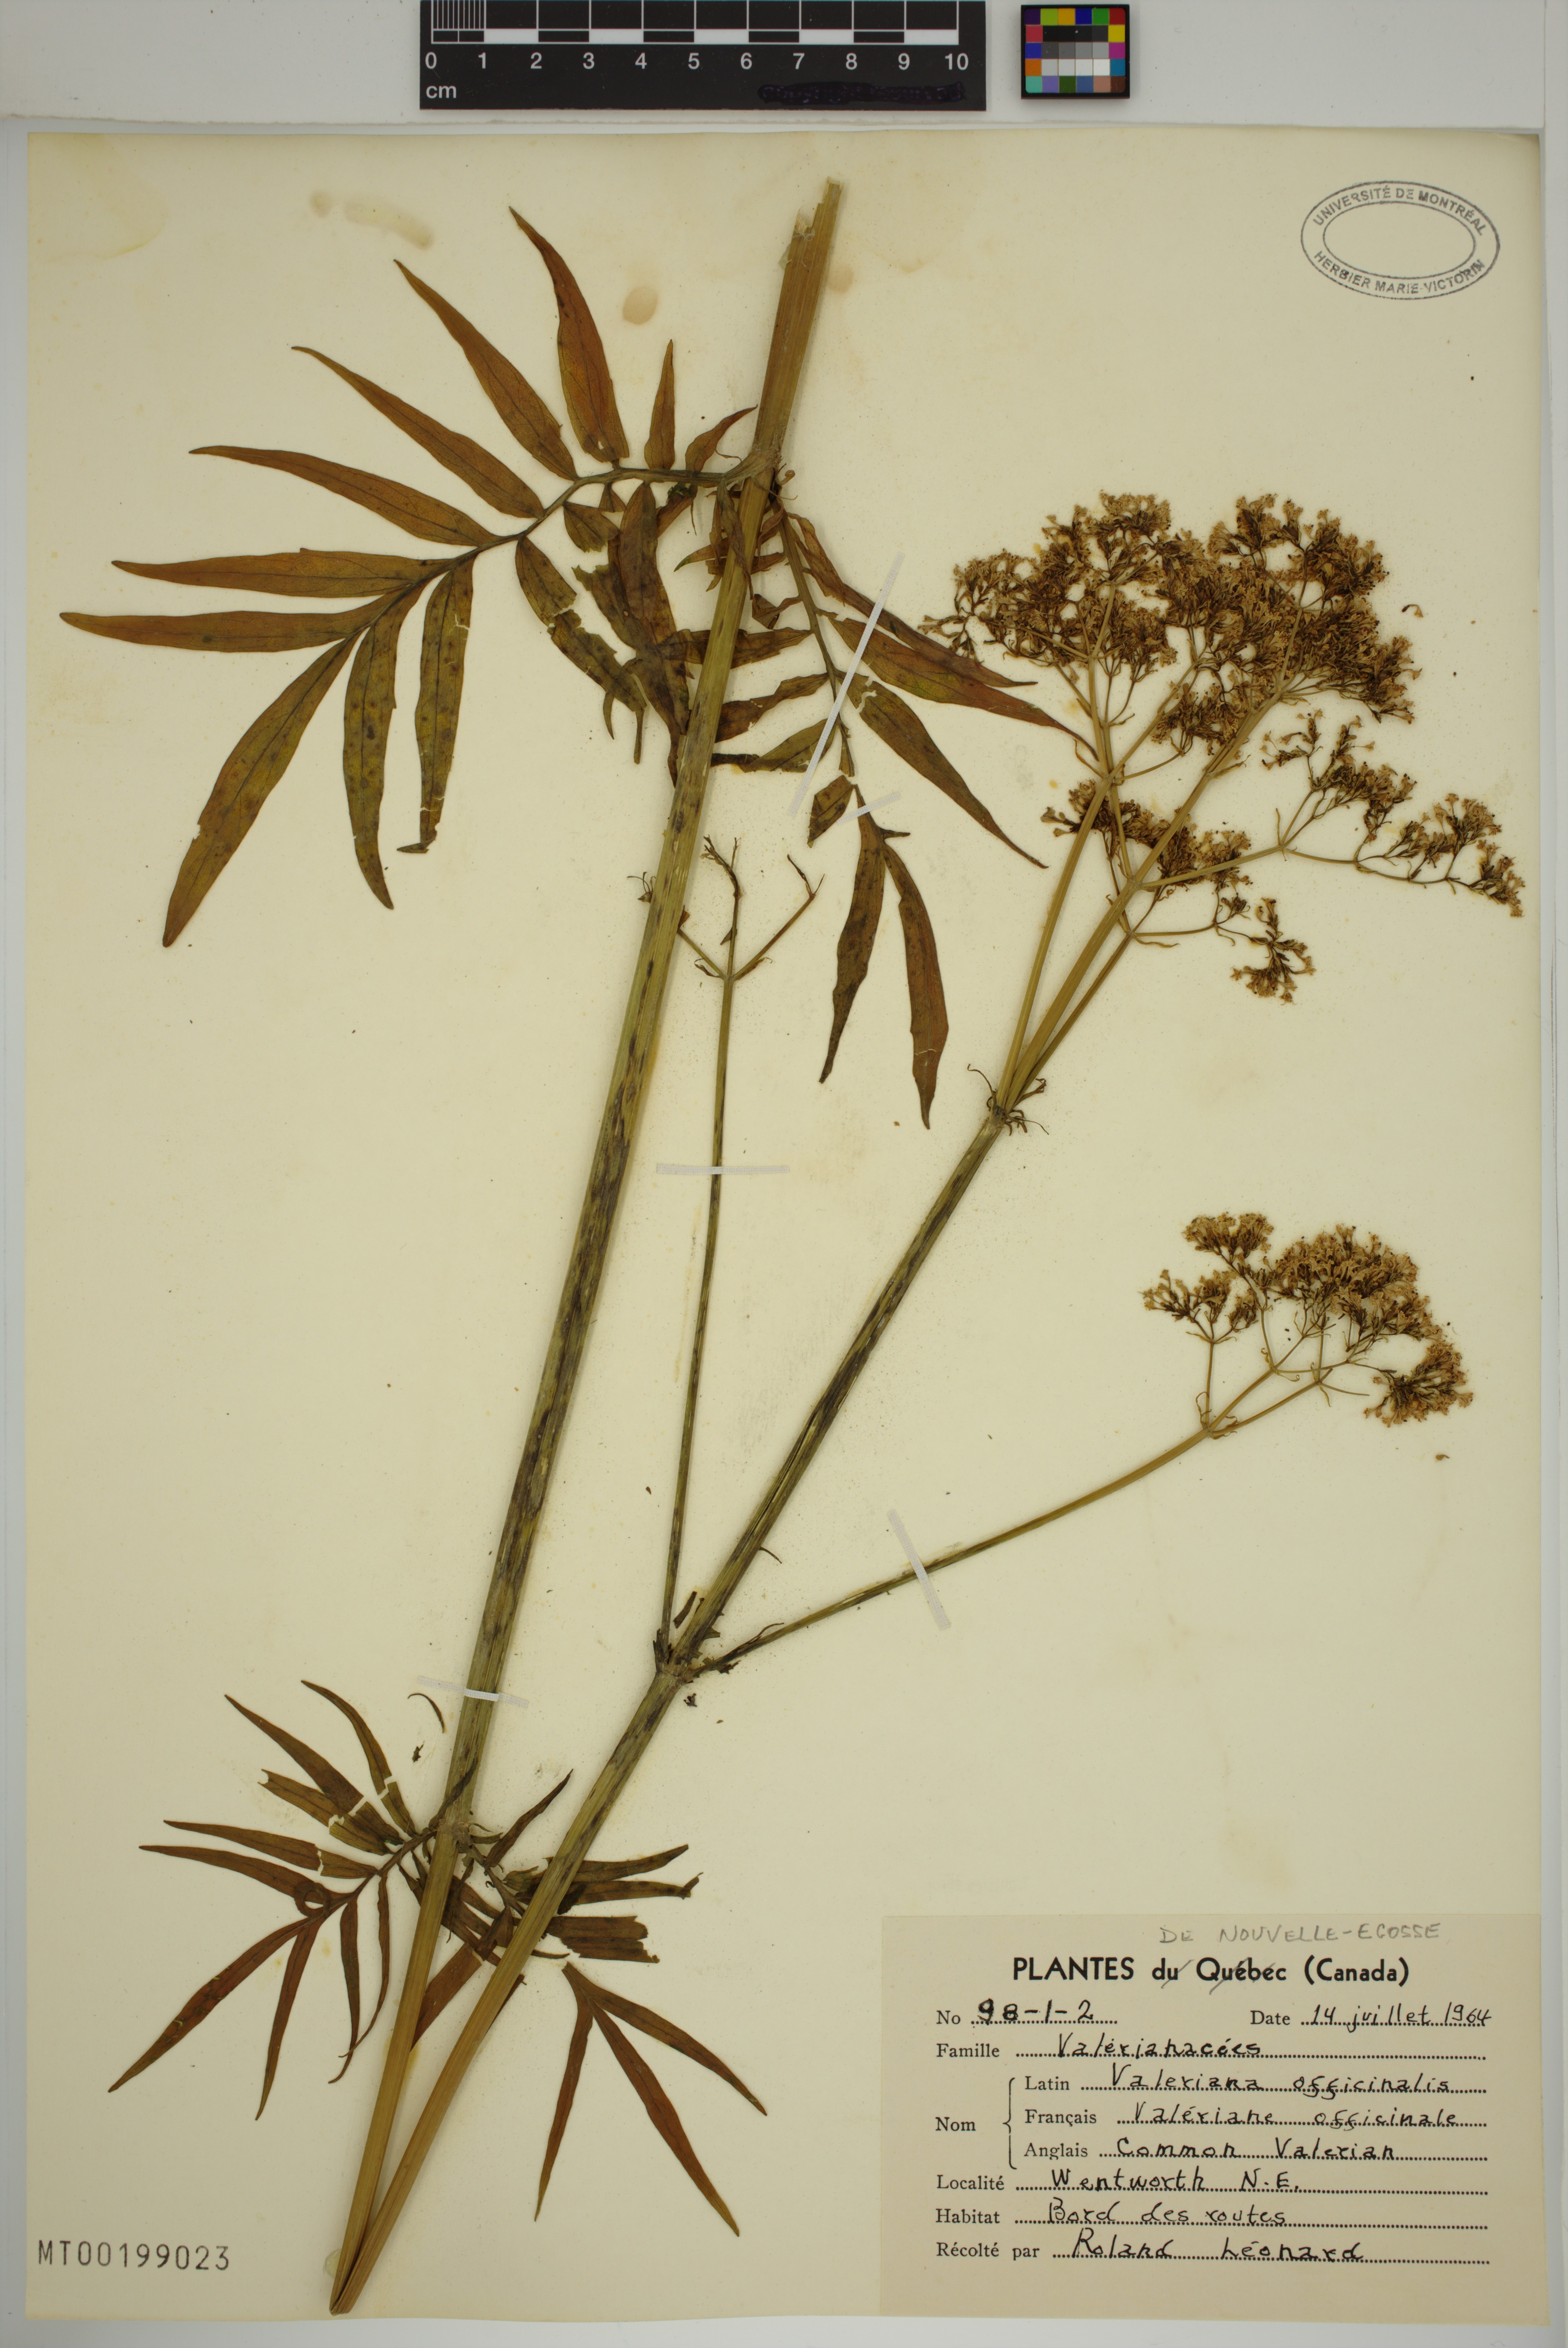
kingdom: Plantae
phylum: Tracheophyta
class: Magnoliopsida
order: Dipsacales
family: Caprifoliaceae
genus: Valeriana
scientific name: Valeriana officinalis
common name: Common valerian
